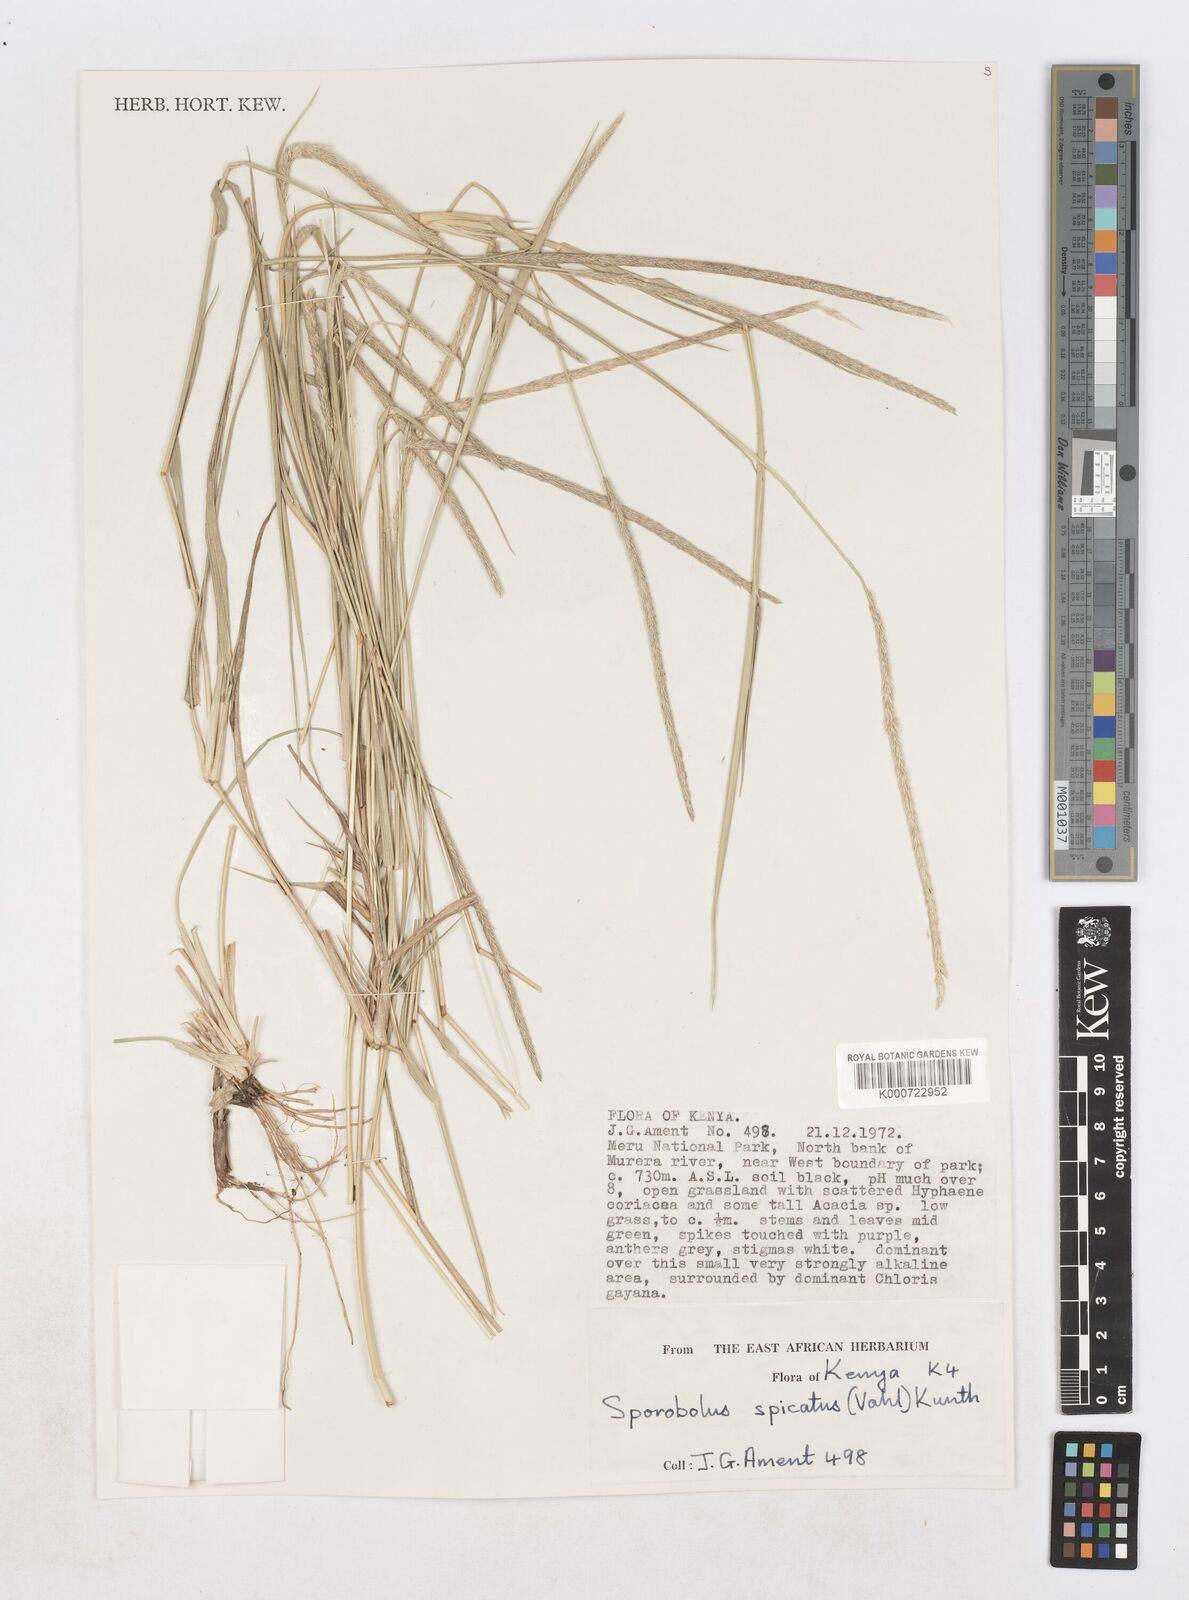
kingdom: Plantae
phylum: Tracheophyta
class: Liliopsida
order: Poales
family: Poaceae
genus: Sporobolus
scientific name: Sporobolus spicatus
